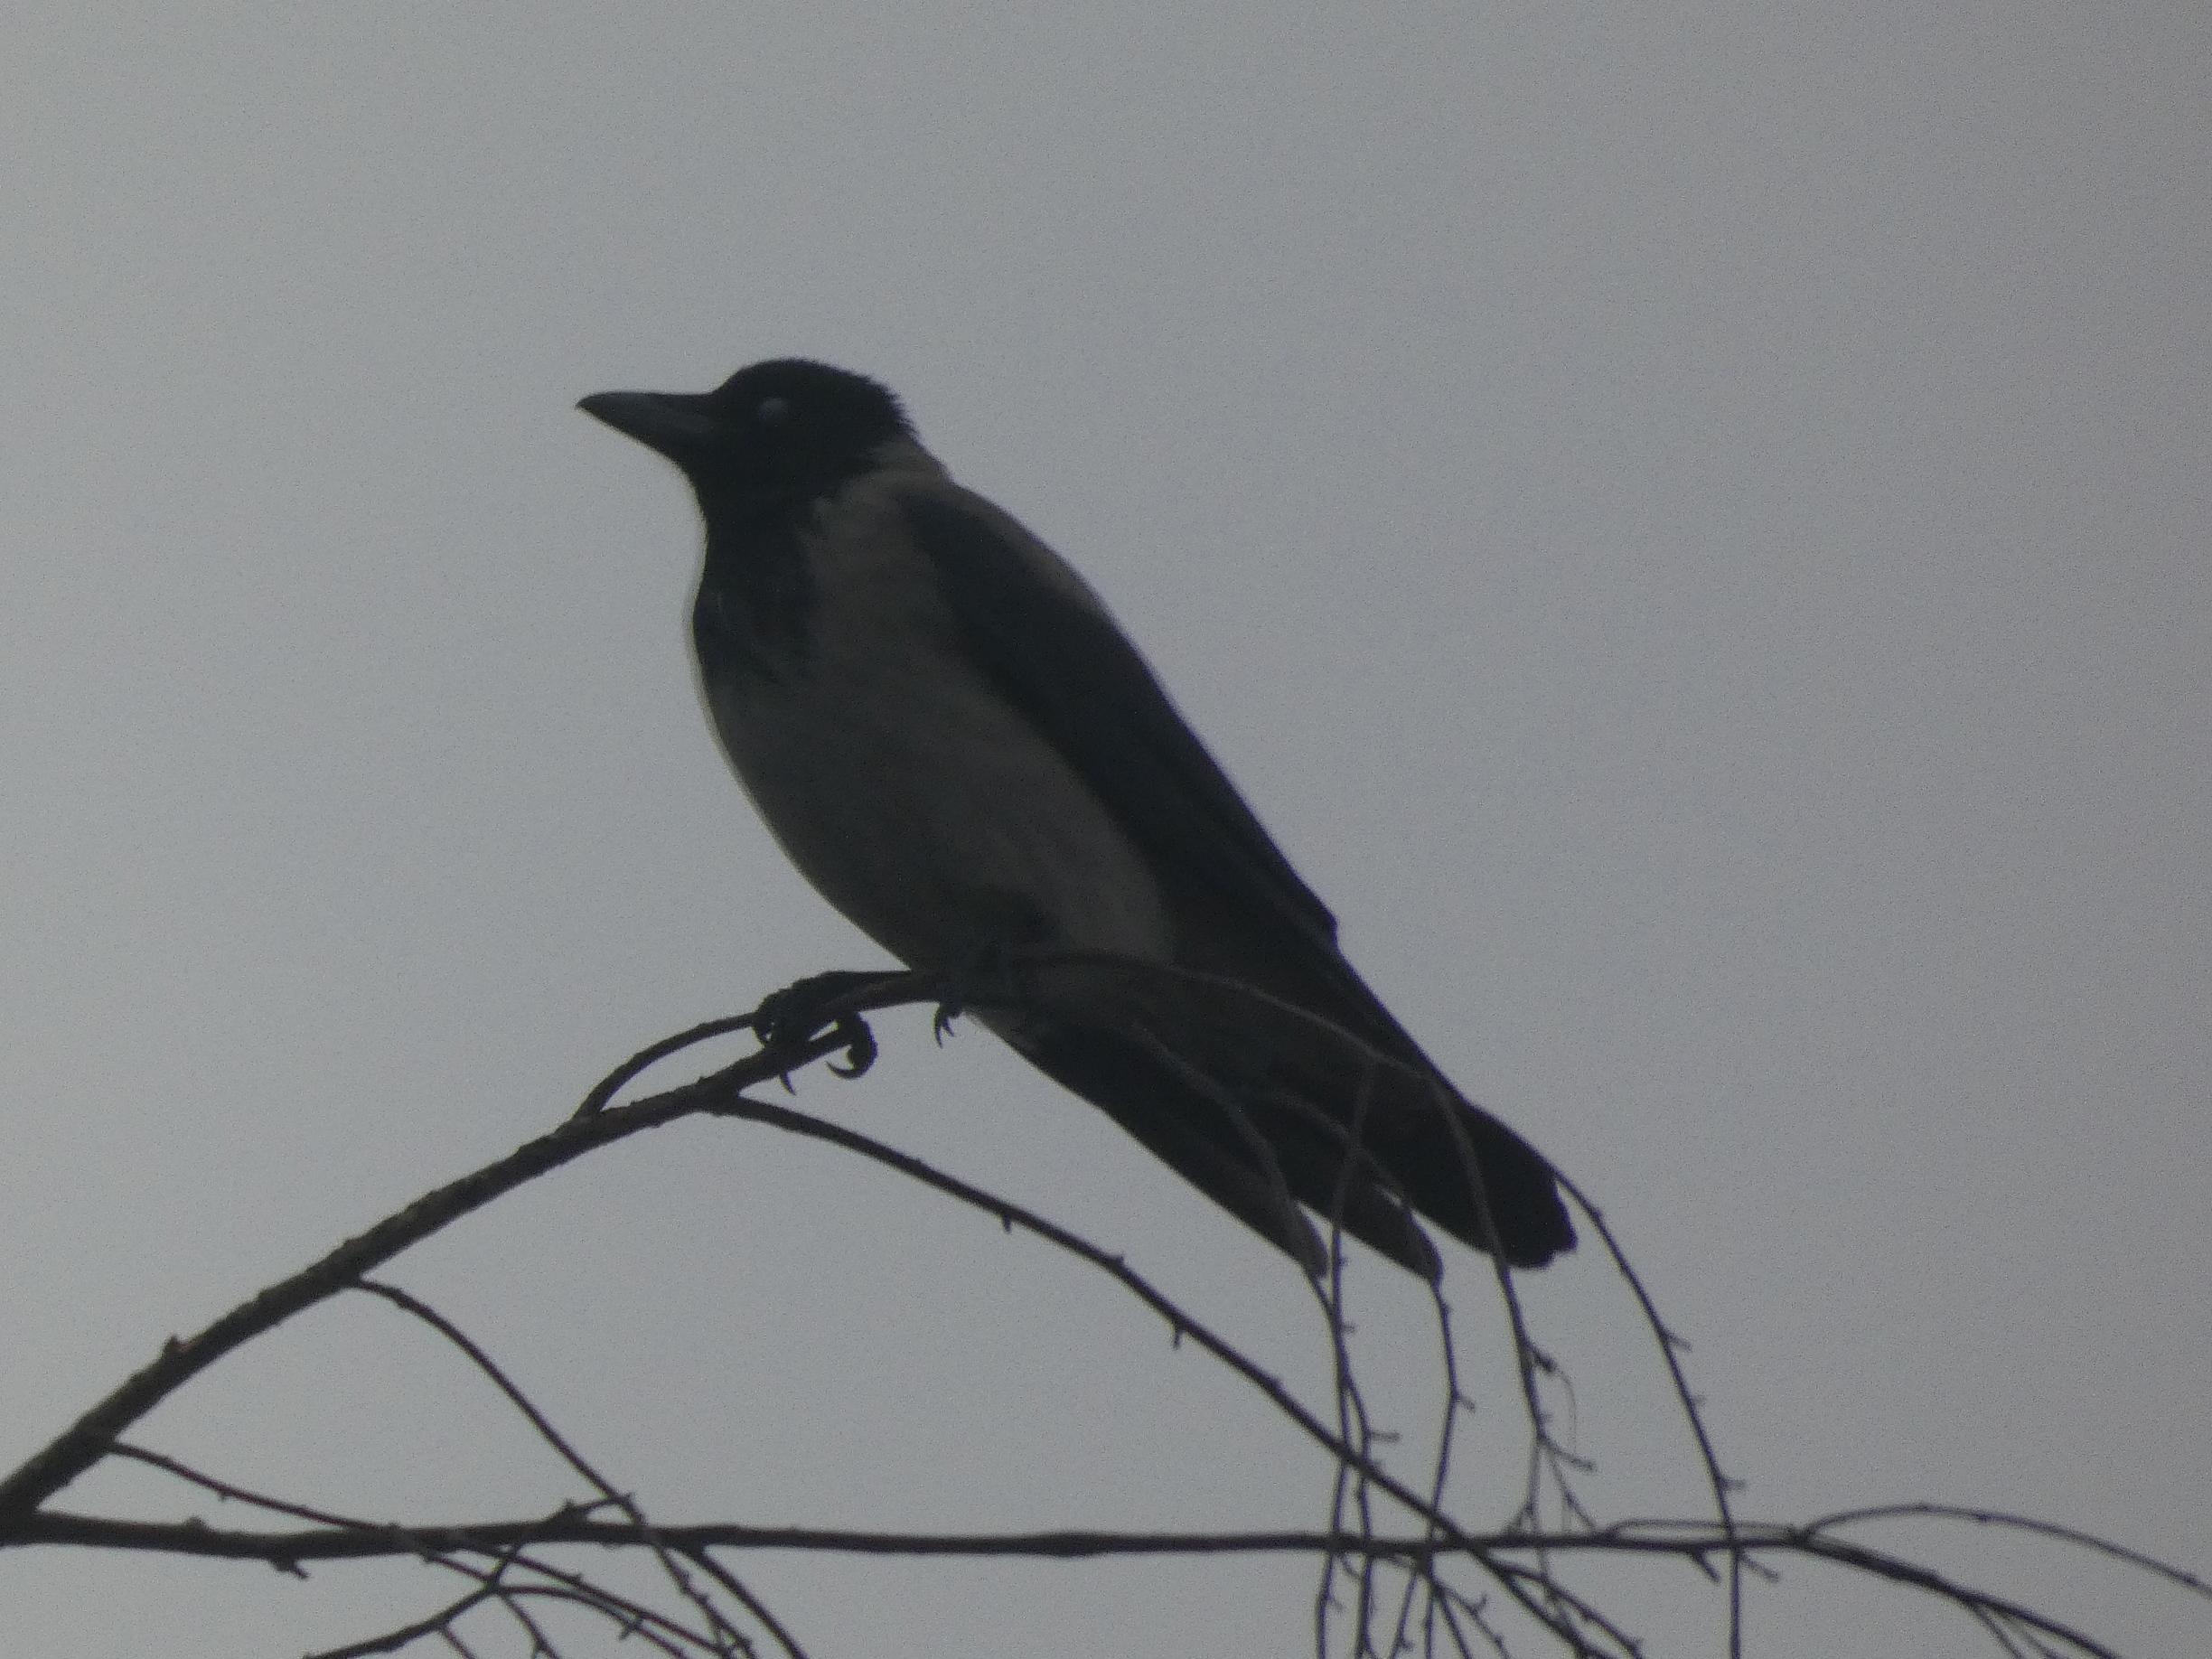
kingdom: Animalia
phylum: Chordata
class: Aves
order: Passeriformes
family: Corvidae
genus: Corvus
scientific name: Corvus cornix
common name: Gråkrage
